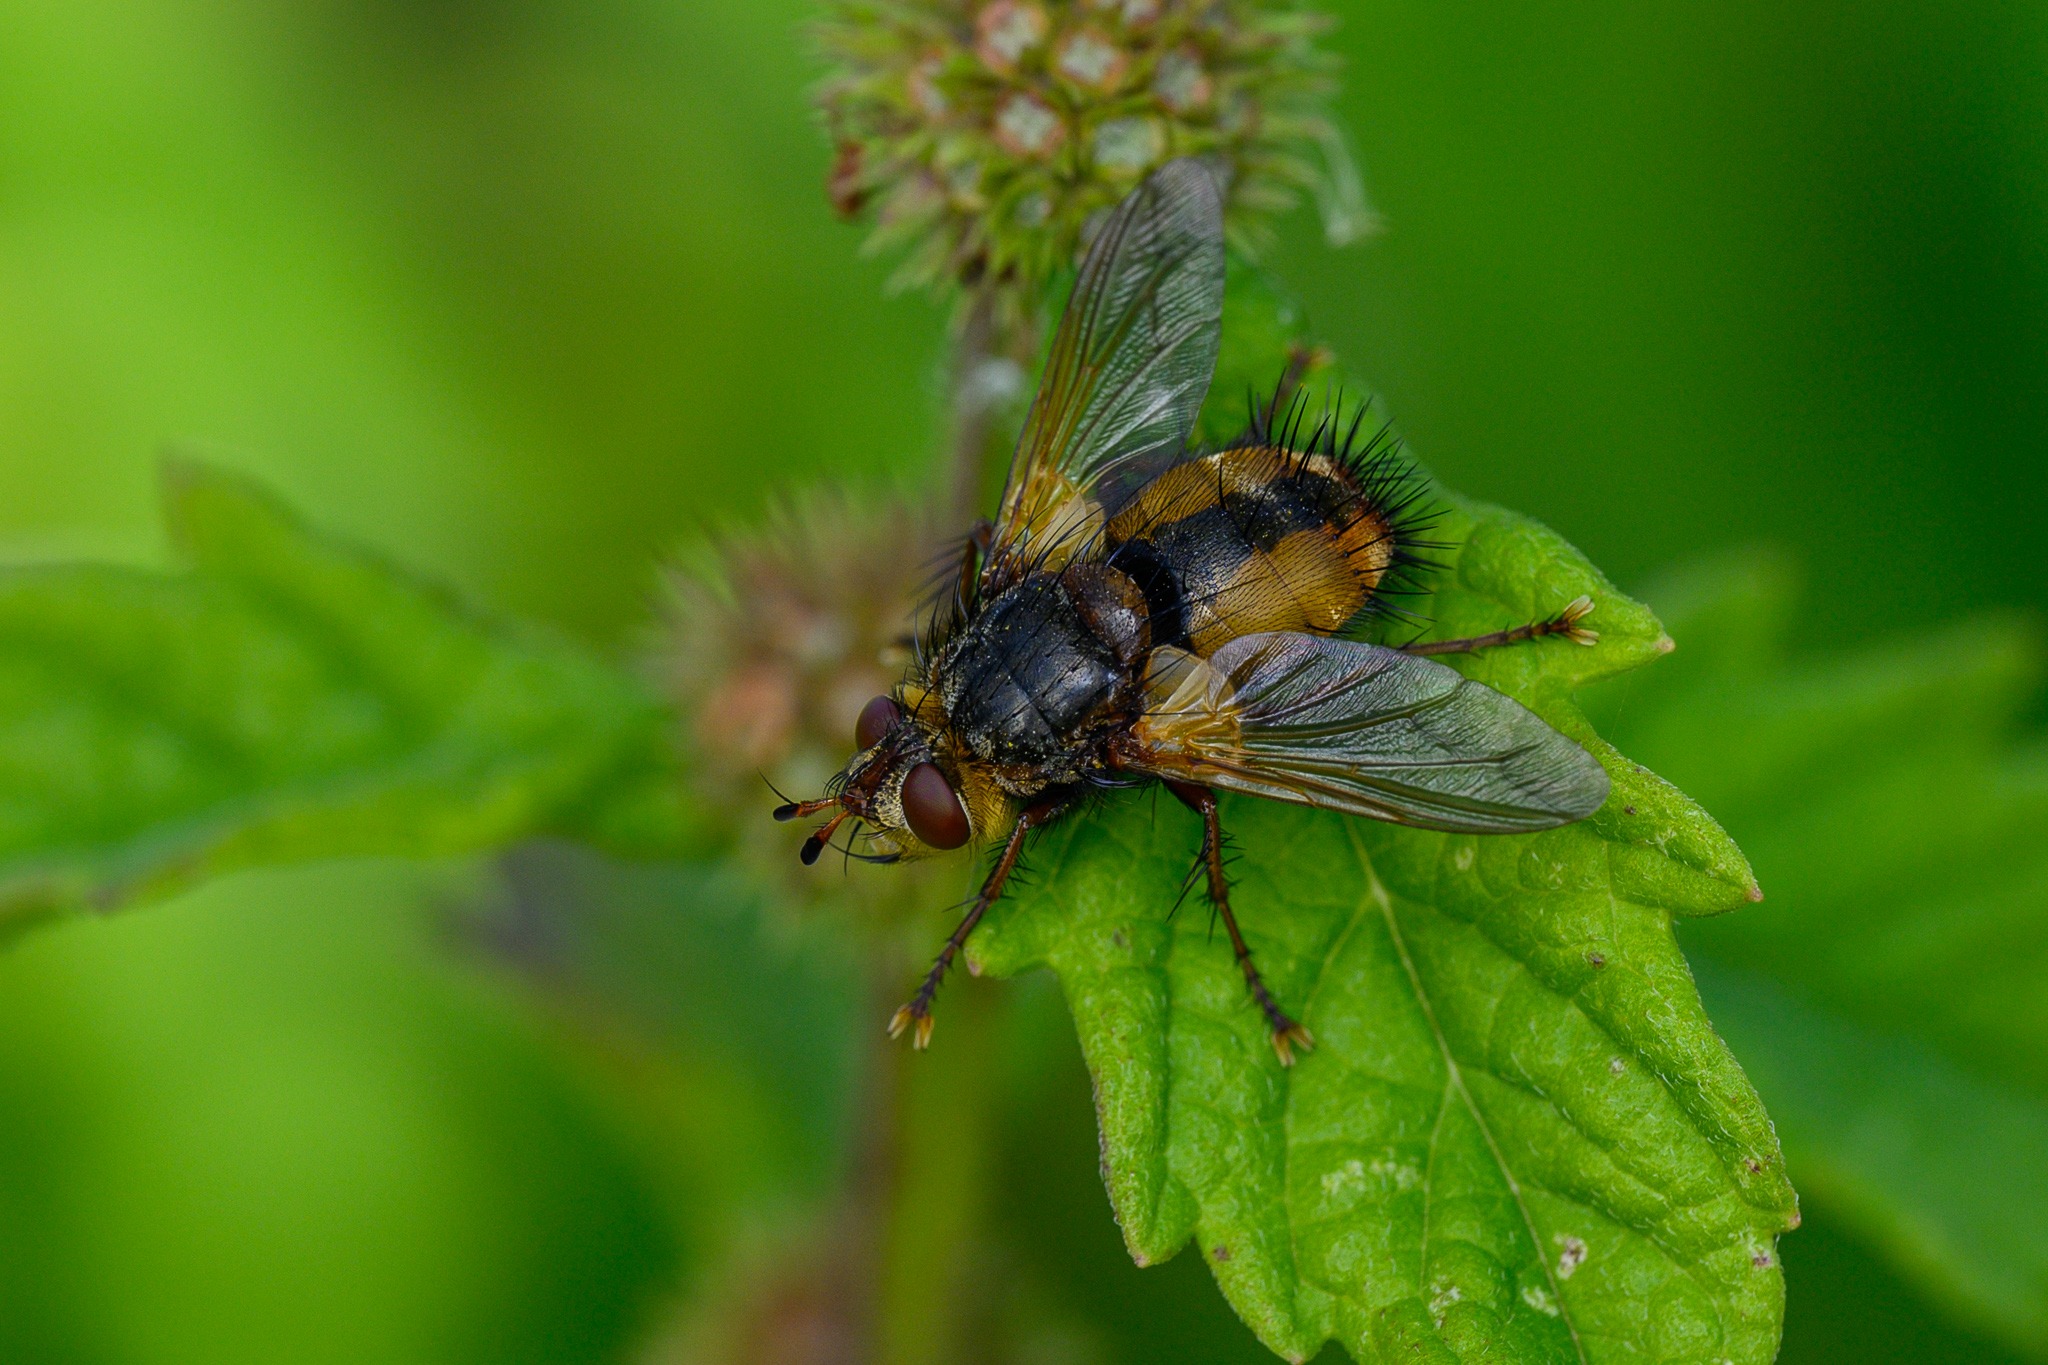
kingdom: Animalia
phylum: Arthropoda
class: Insecta
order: Diptera
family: Tachinidae
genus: Tachina
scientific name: Tachina fera
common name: Mellemfluen oskar
